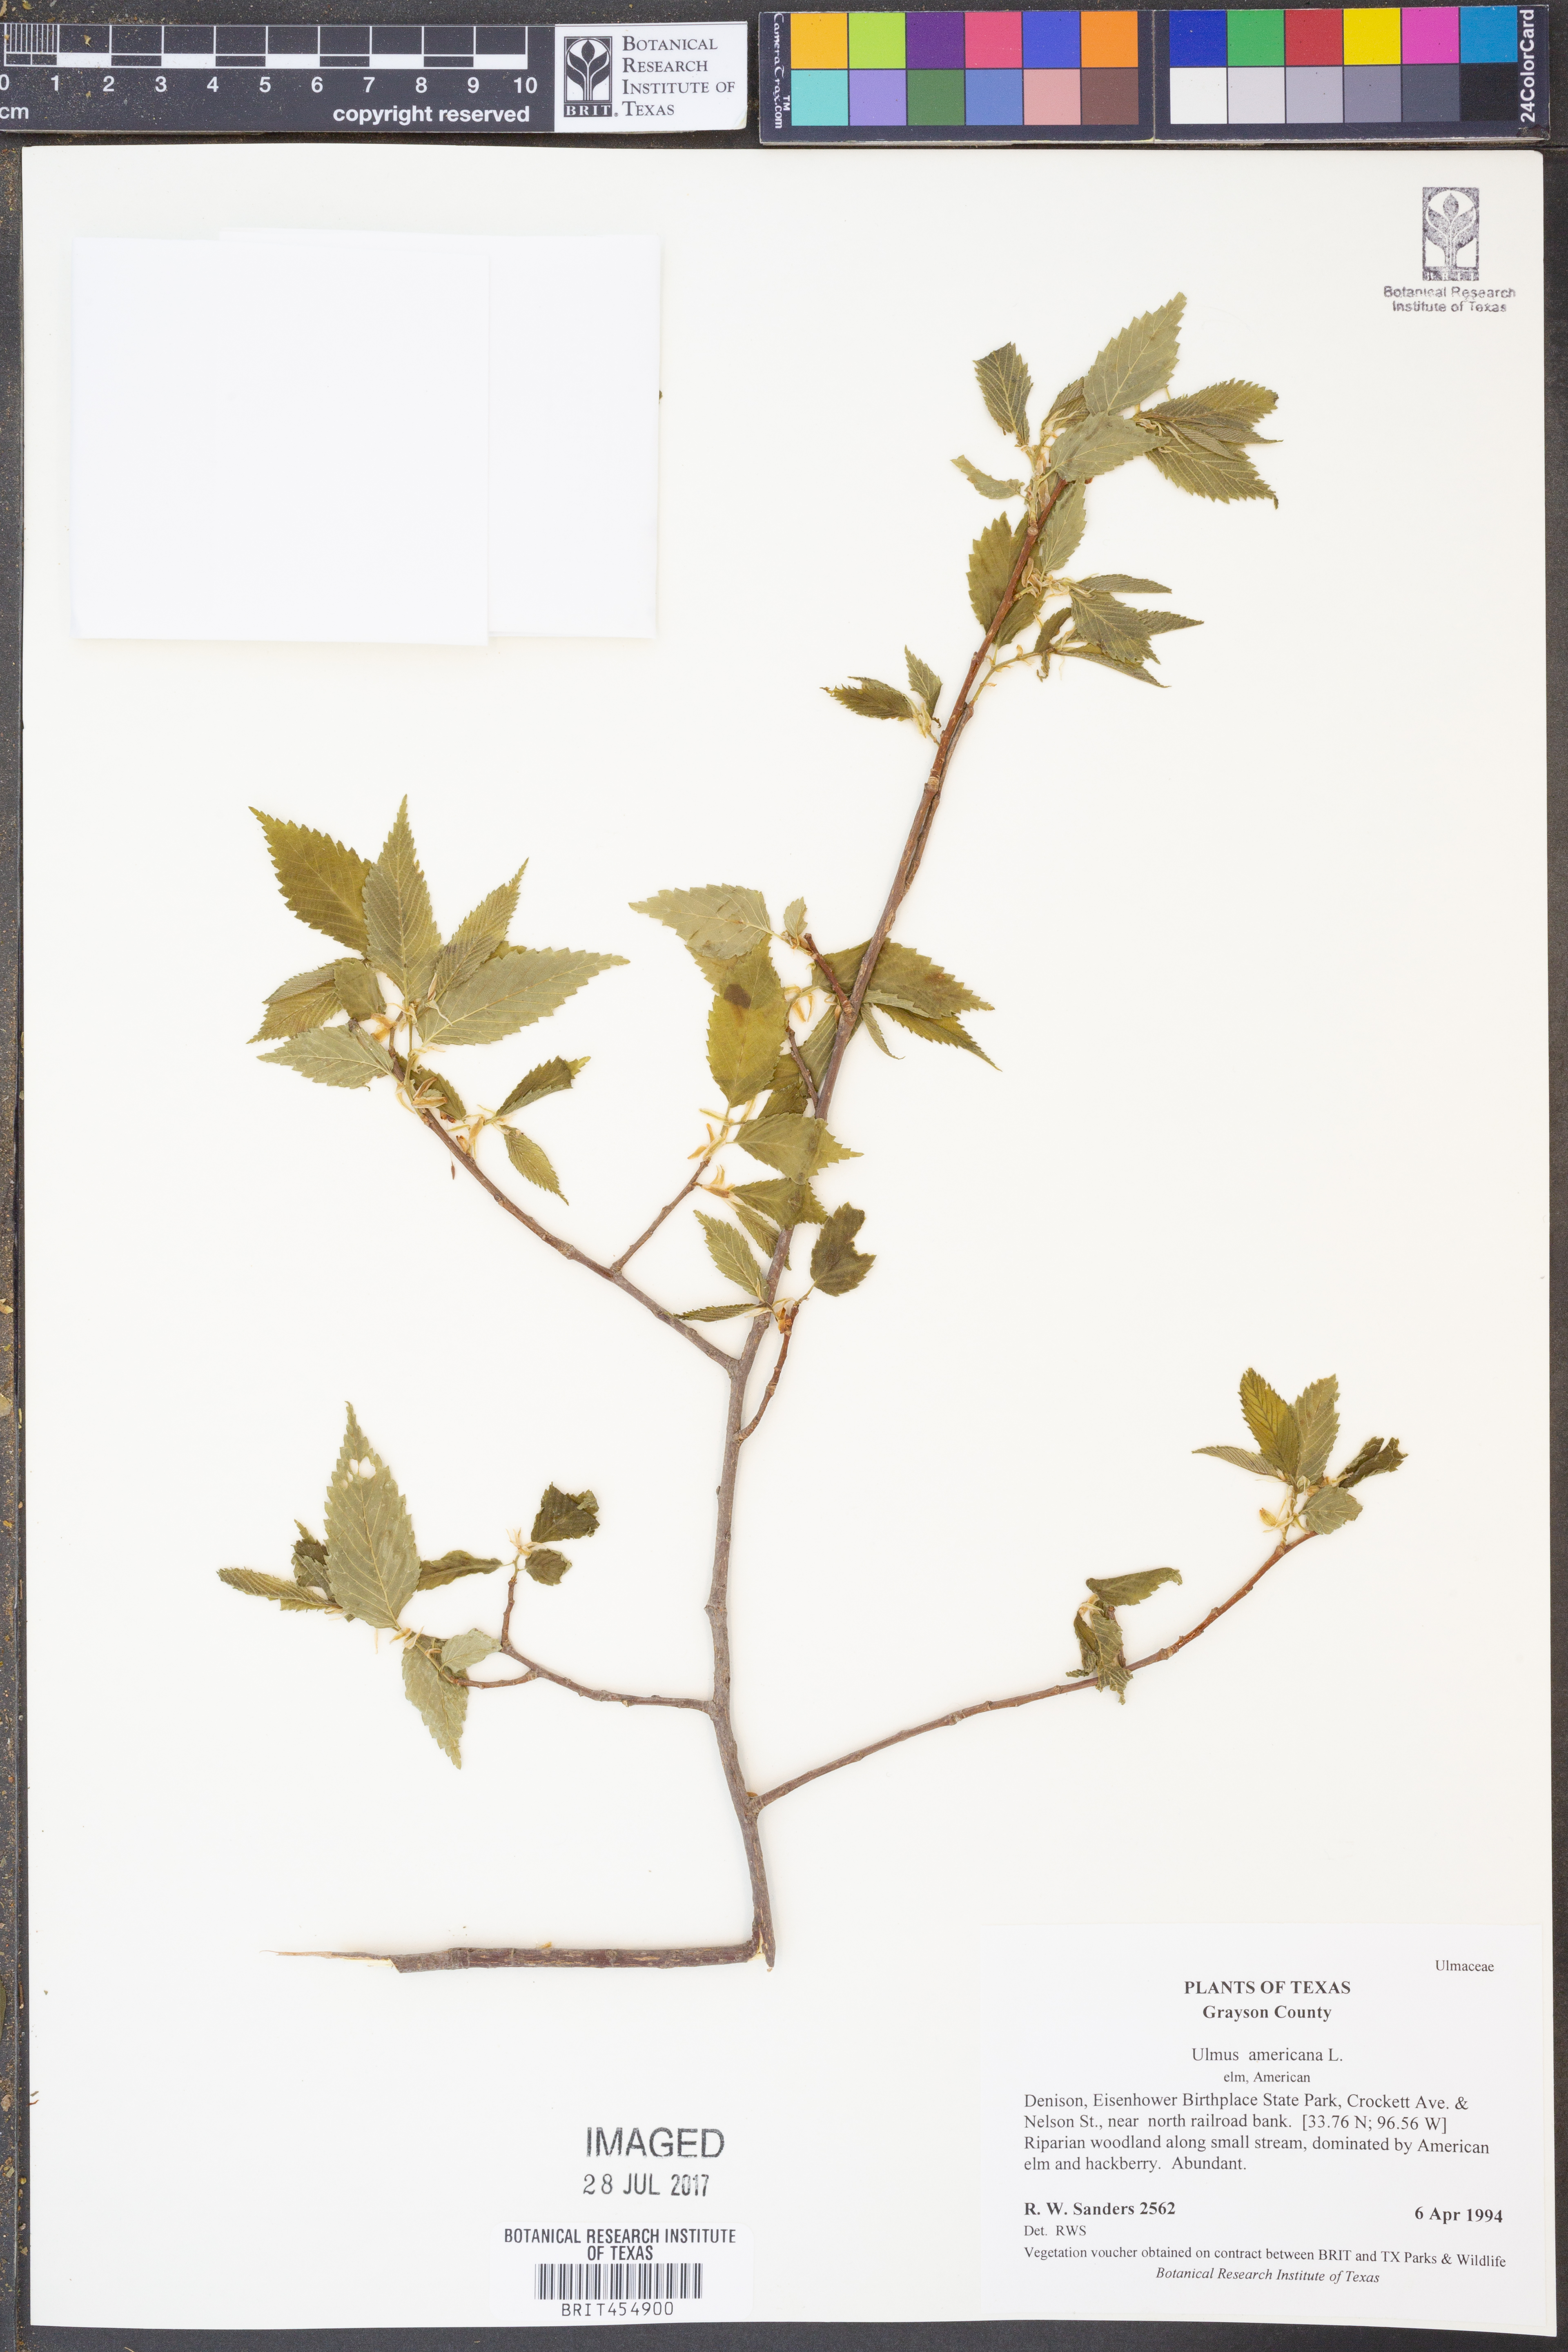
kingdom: Plantae
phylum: Tracheophyta
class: Magnoliopsida
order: Rosales
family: Ulmaceae
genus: Ulmus
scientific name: Ulmus americana
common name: American elm
